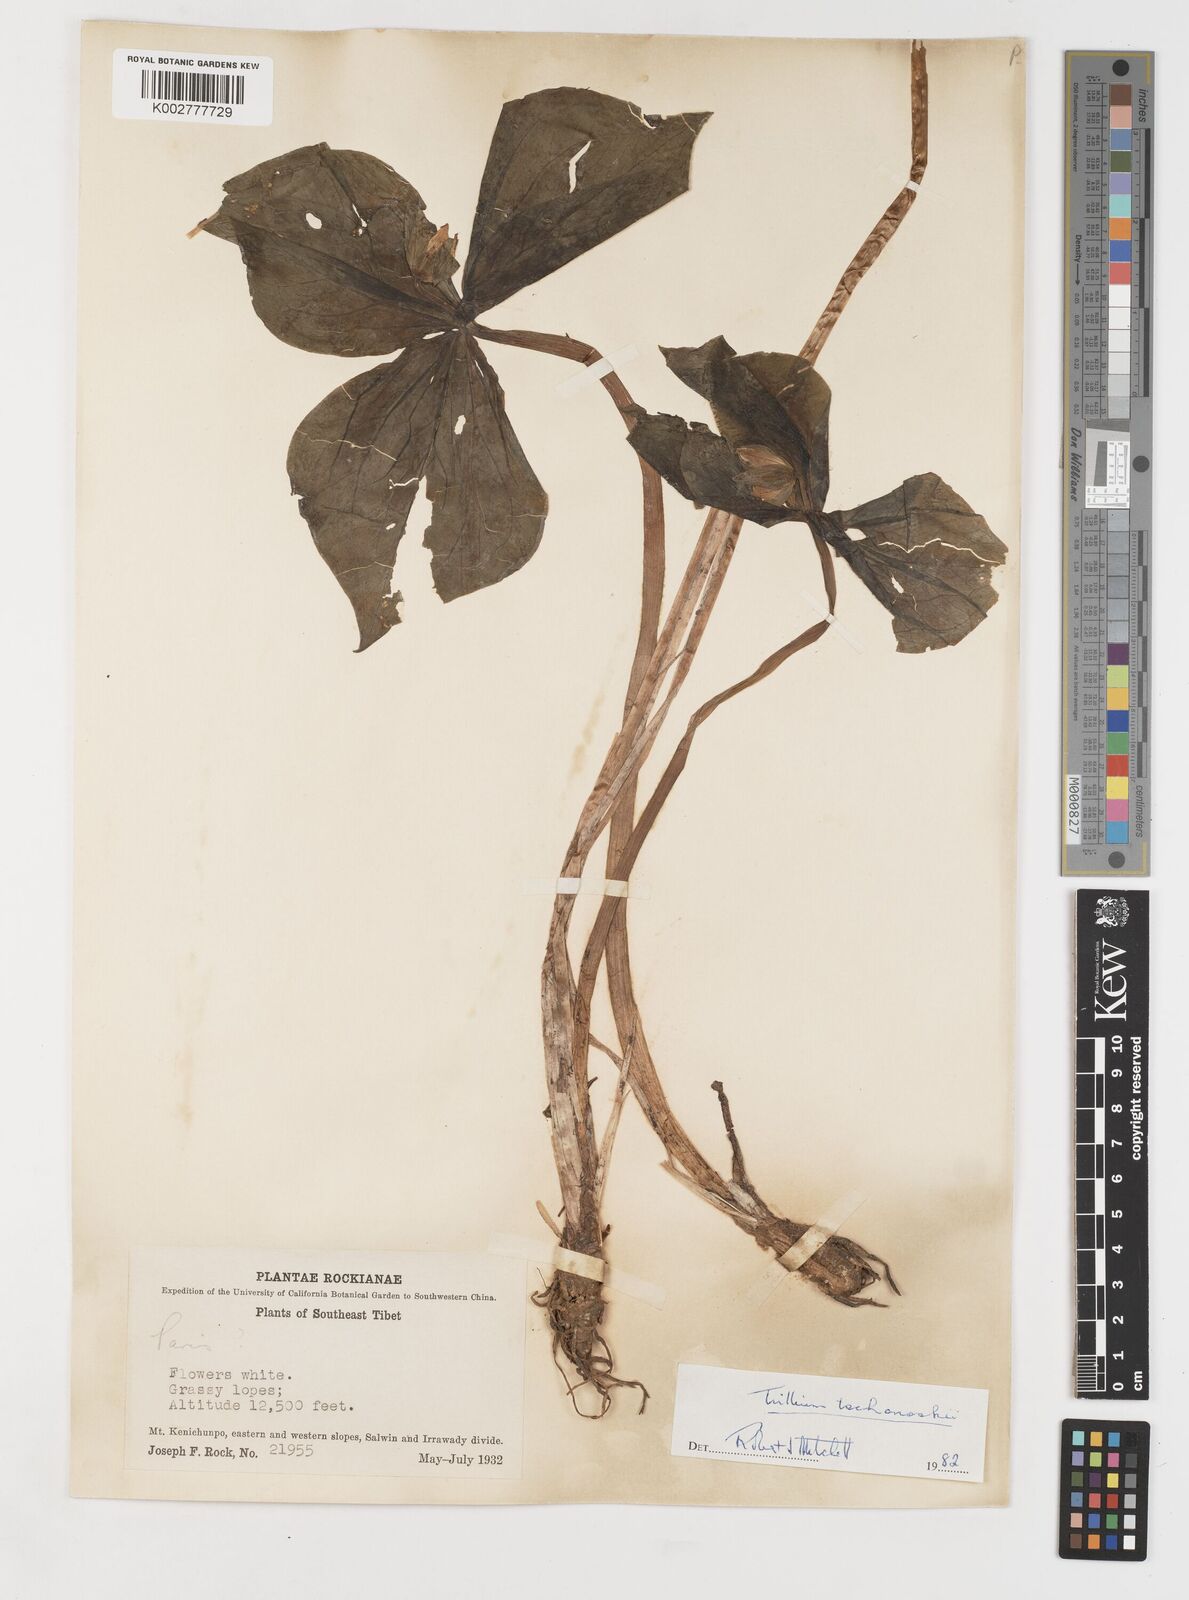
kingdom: Plantae
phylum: Tracheophyta
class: Liliopsida
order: Liliales
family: Melanthiaceae
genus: Trillium
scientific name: Trillium tschonoskii
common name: A pearl on head
